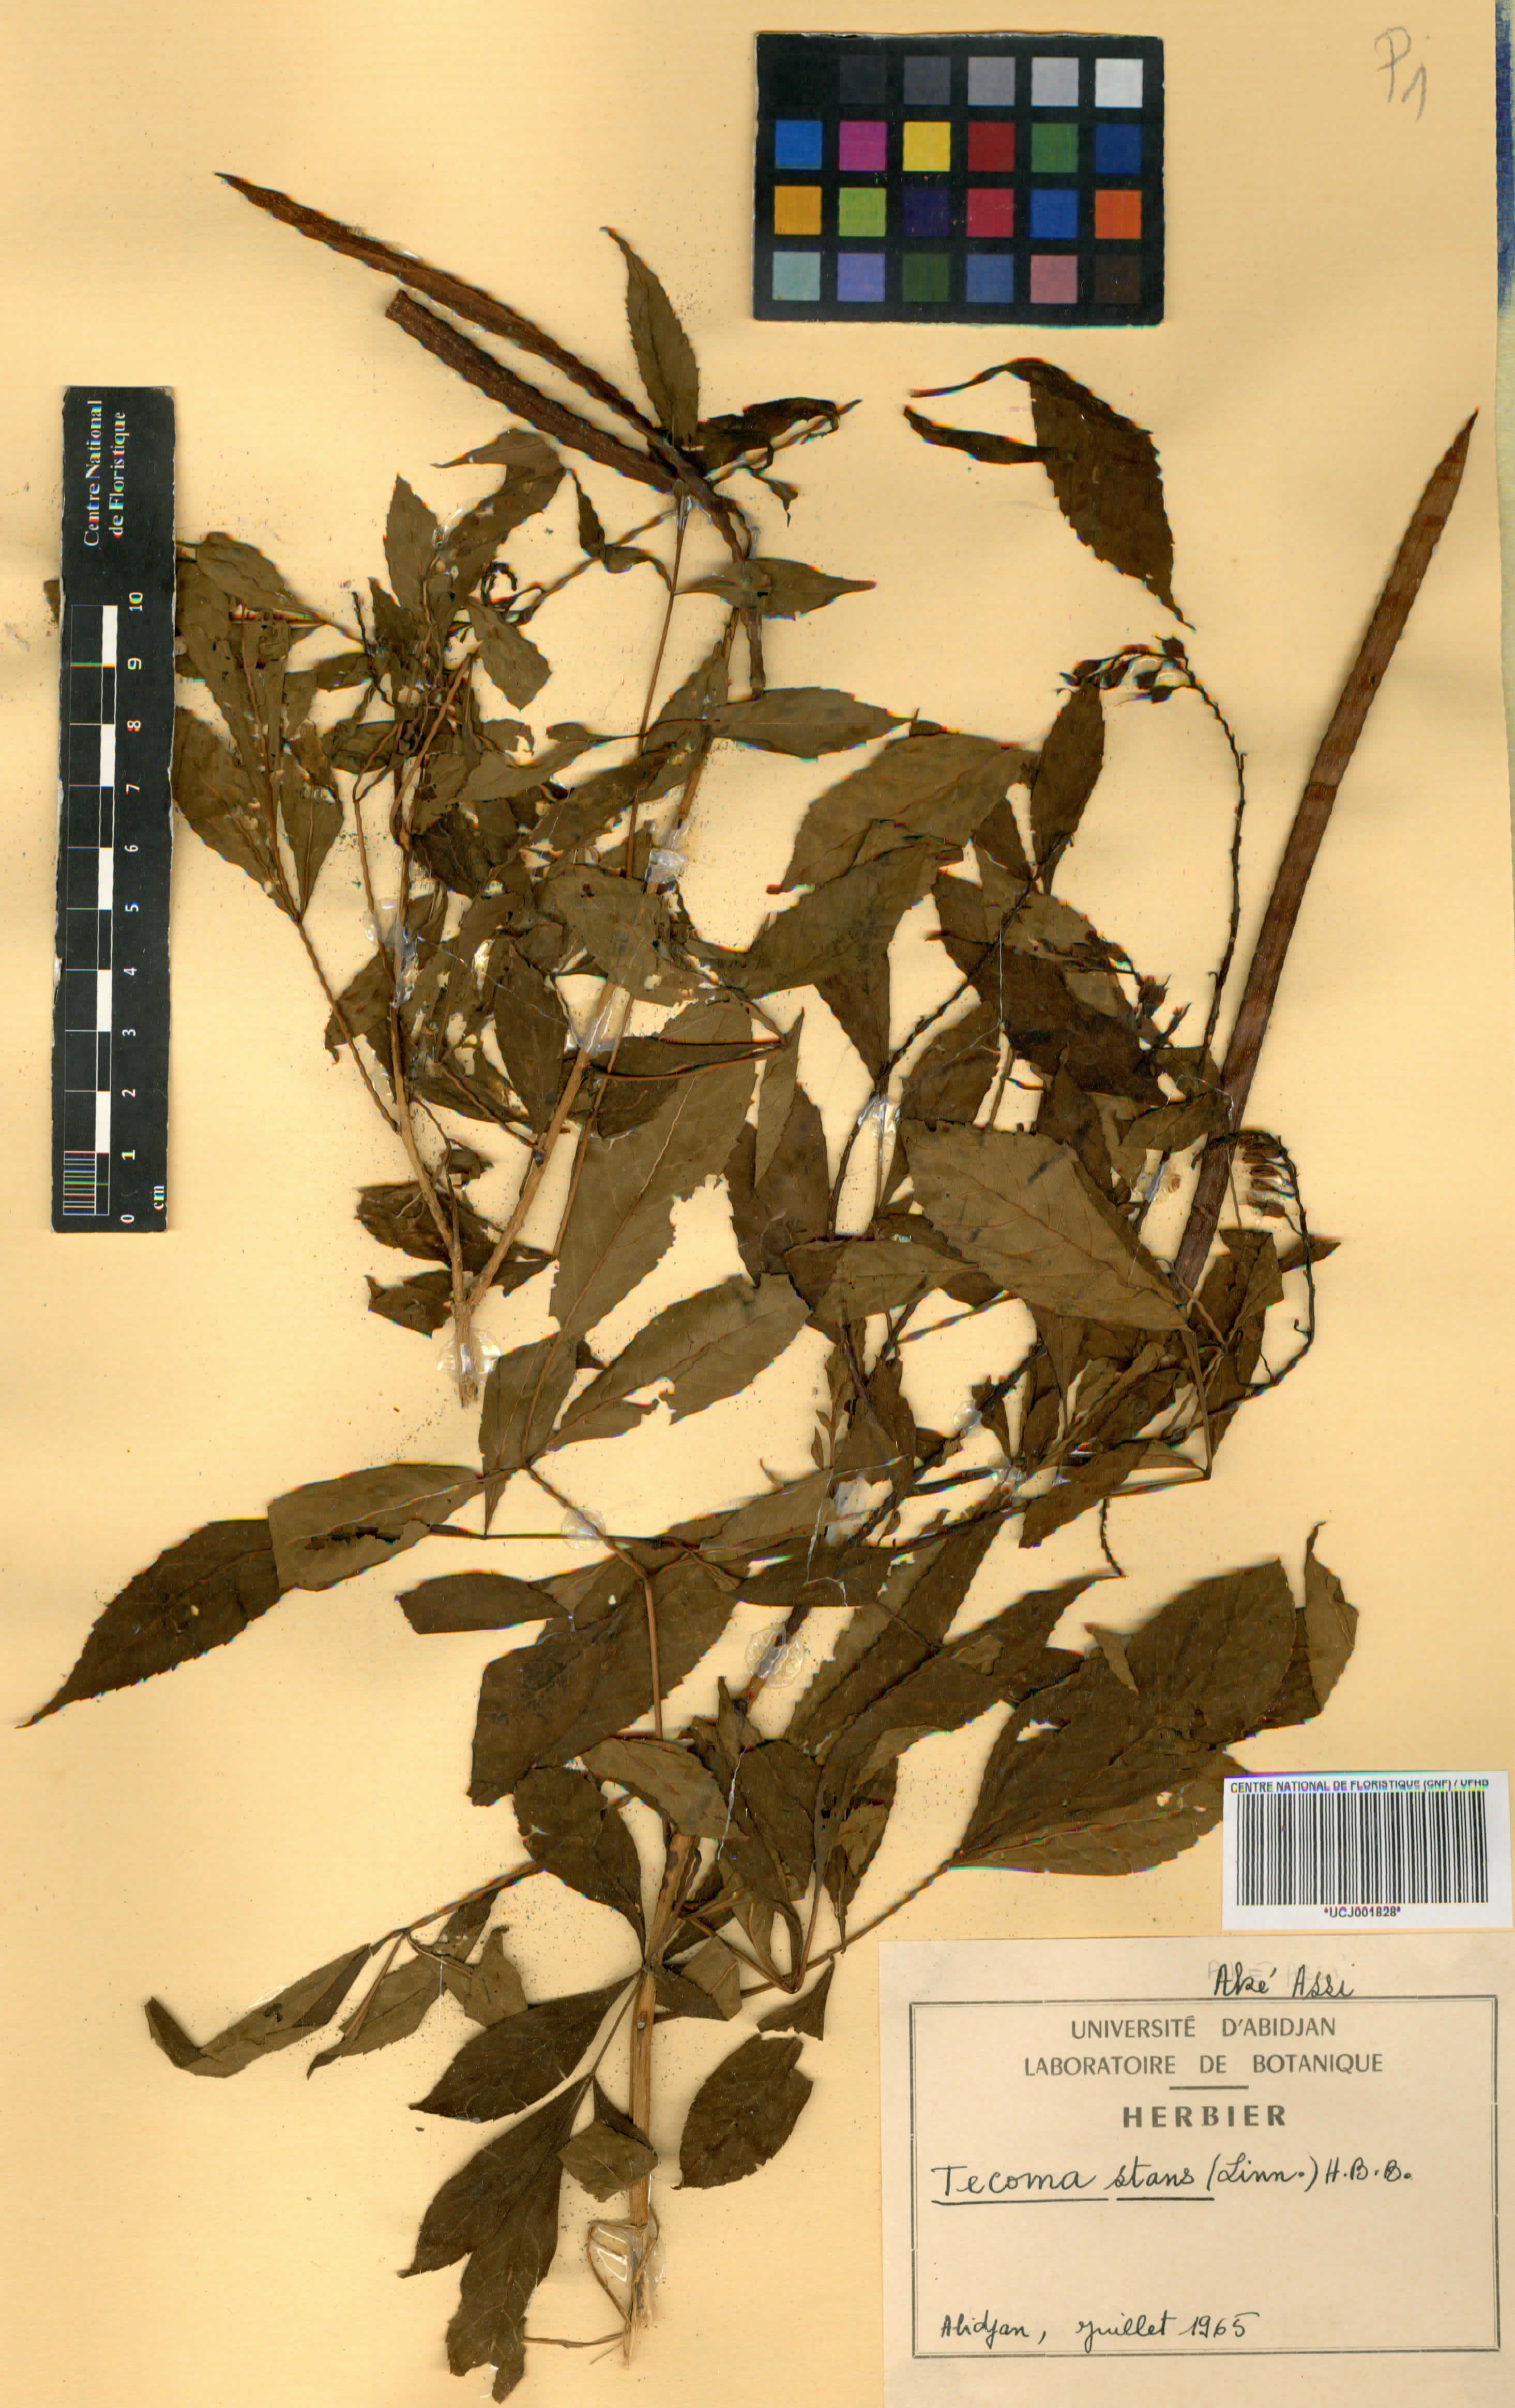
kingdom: Plantae
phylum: Tracheophyta
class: Magnoliopsida
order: Lamiales
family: Bignoniaceae
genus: Tecoma
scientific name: Tecoma stans
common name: Yellow trumpetbush
